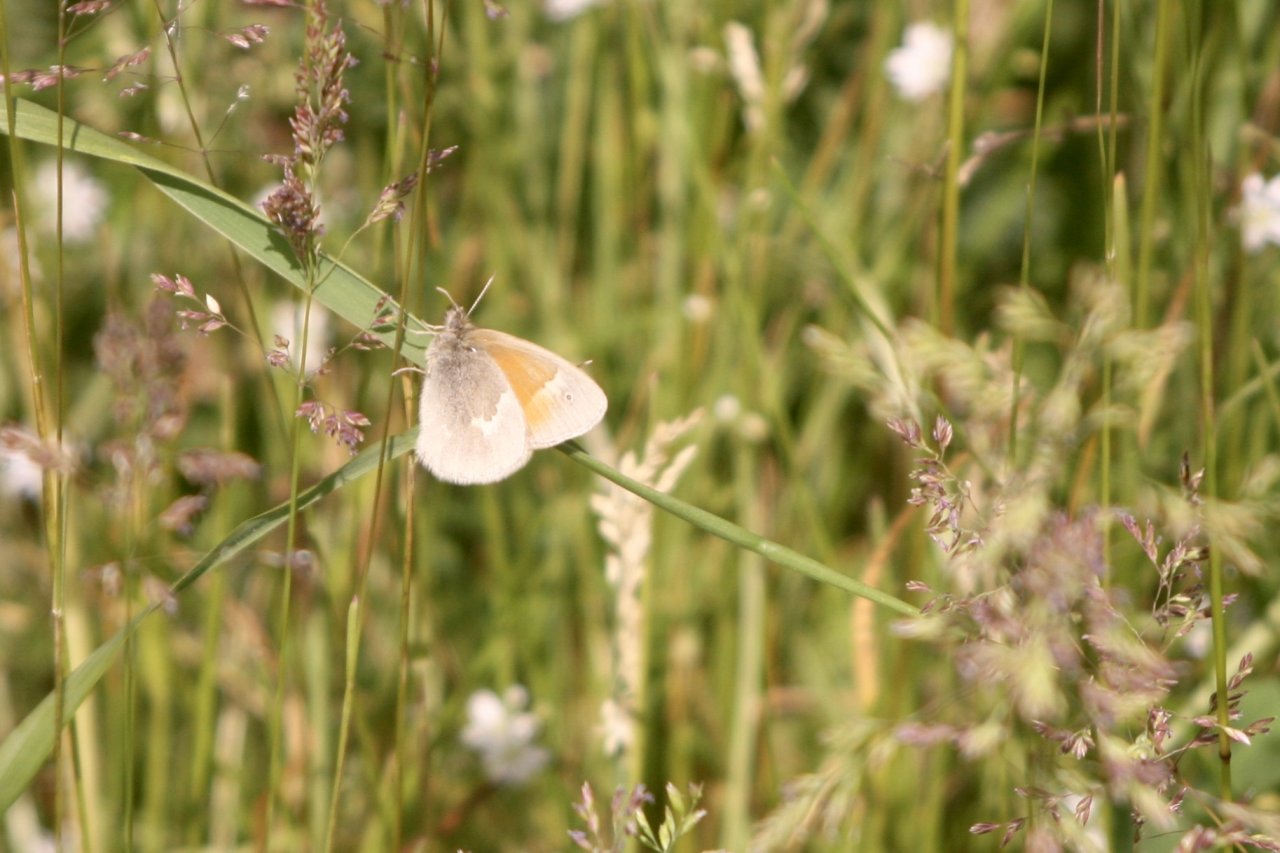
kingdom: Animalia
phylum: Arthropoda
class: Insecta
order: Lepidoptera
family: Nymphalidae
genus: Coenonympha
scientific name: Coenonympha tullia
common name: Large Heath
